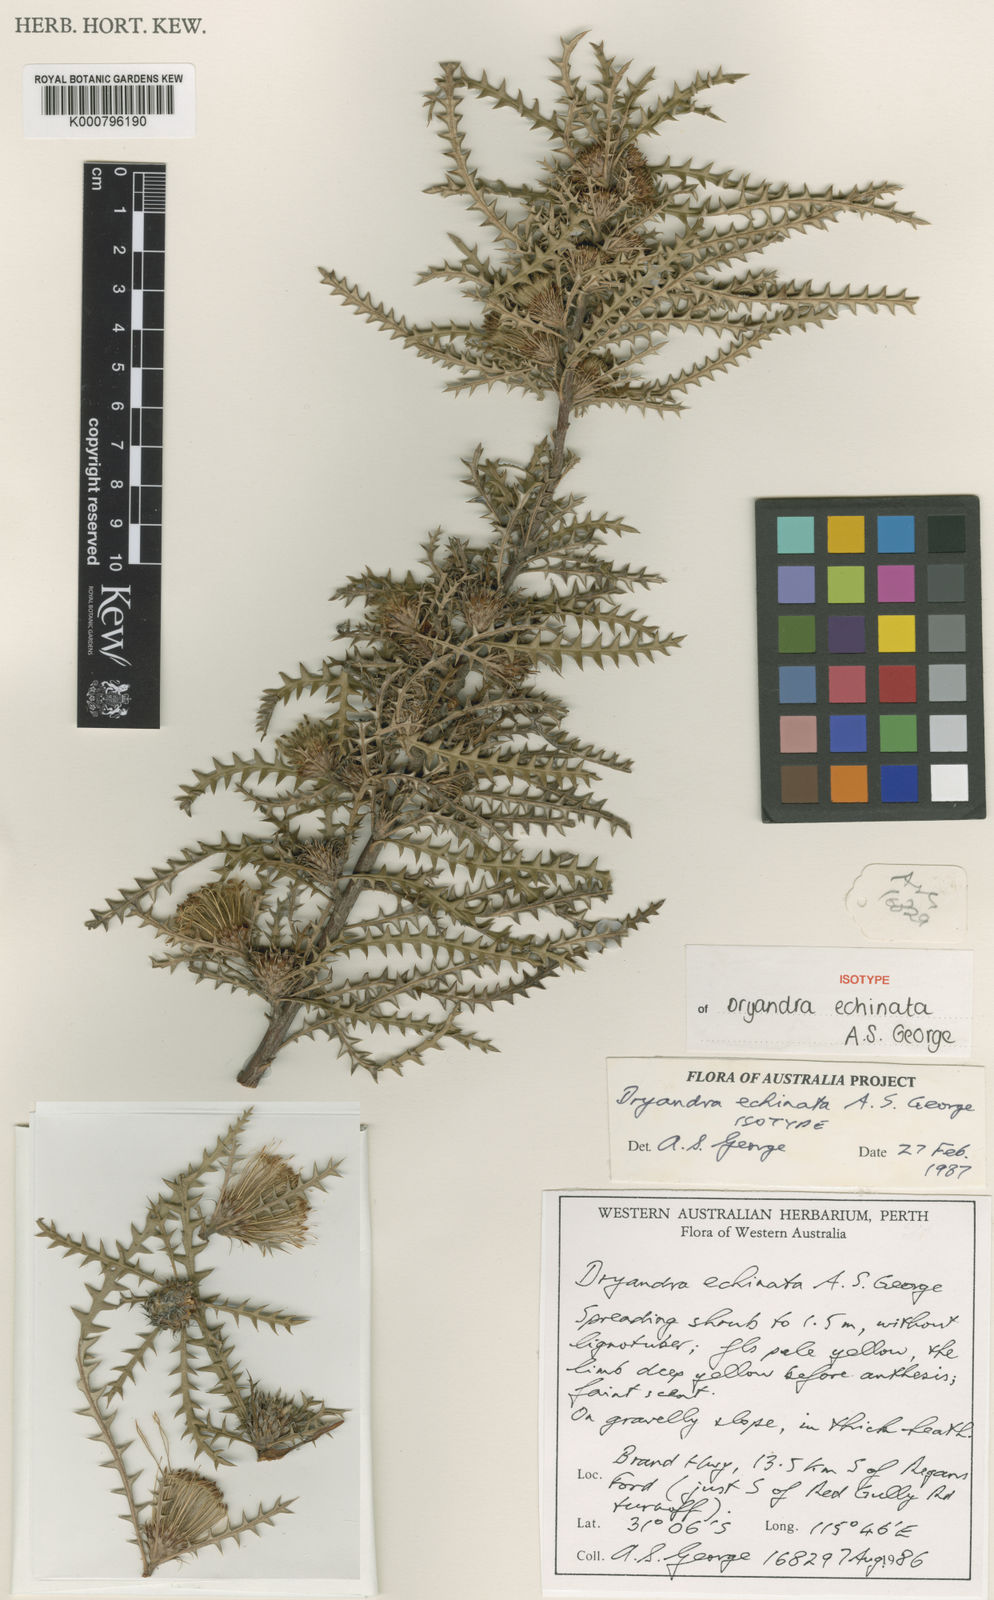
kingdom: Plantae
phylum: Tracheophyta
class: Magnoliopsida
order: Proteales
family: Proteaceae
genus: Banksia
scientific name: Banksia echinata
